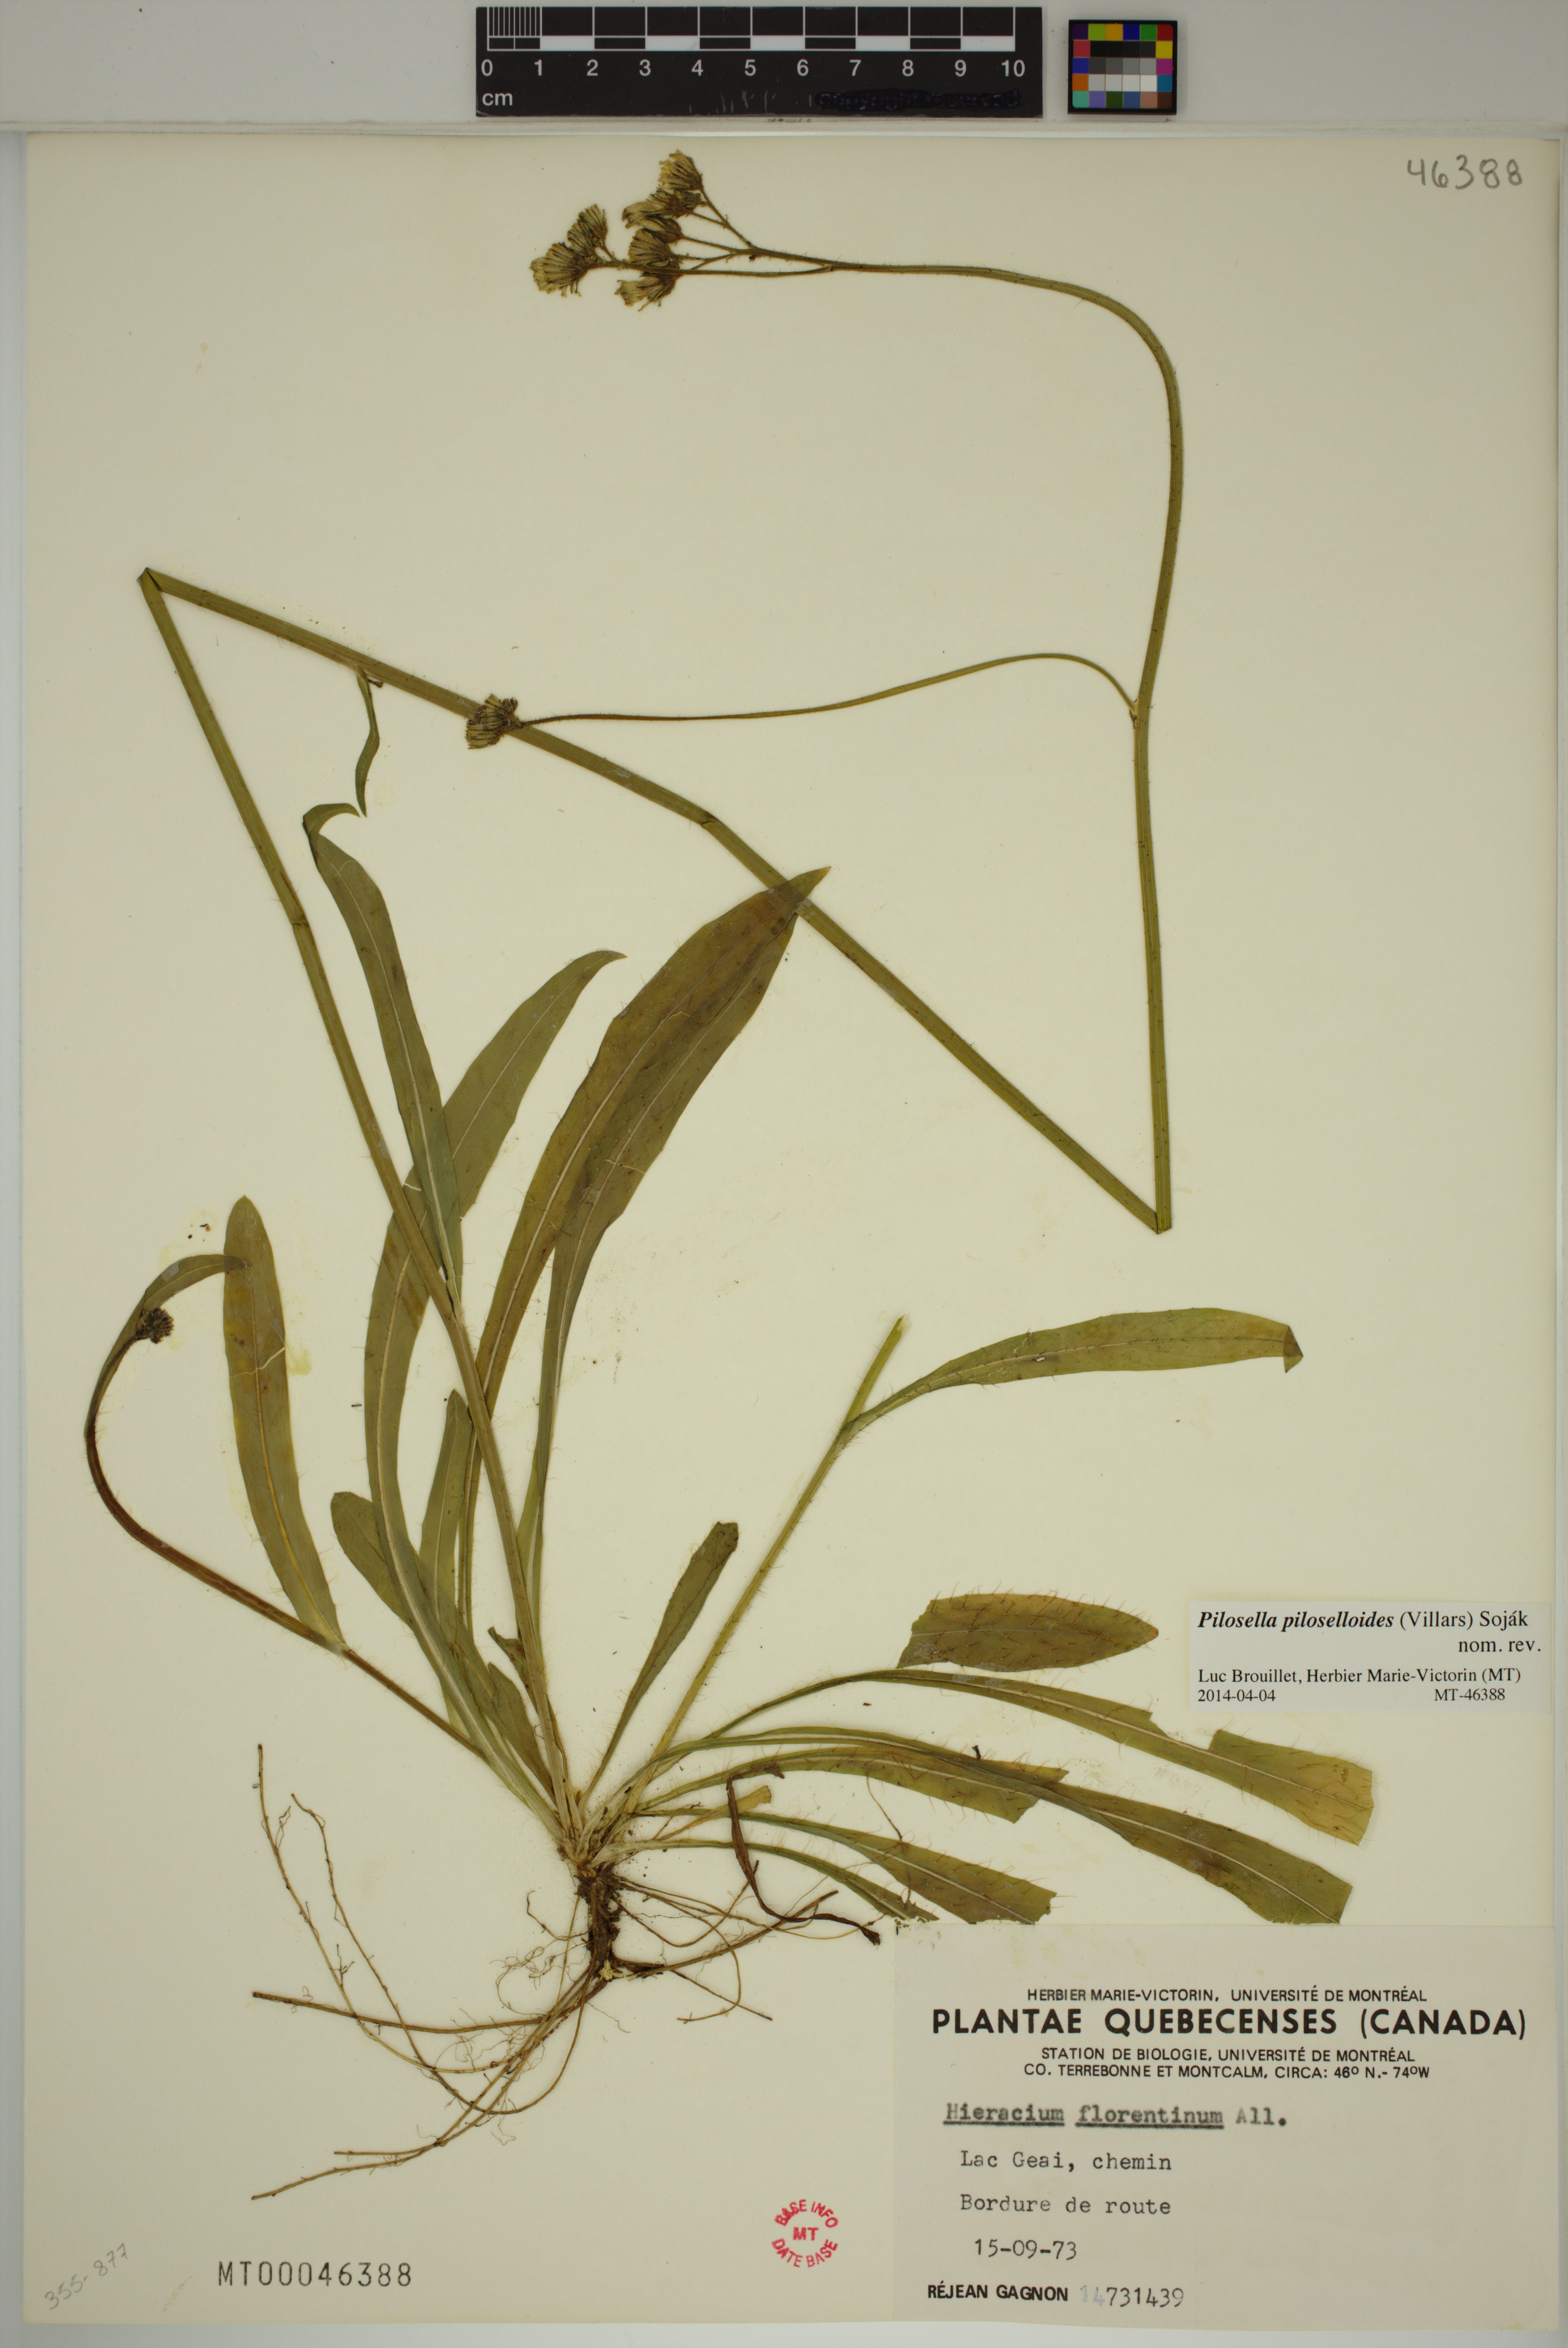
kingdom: Plantae
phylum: Tracheophyta
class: Magnoliopsida
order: Asterales
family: Asteraceae
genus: Pilosella
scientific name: Pilosella piloselloides
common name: Glaucous king-devil
